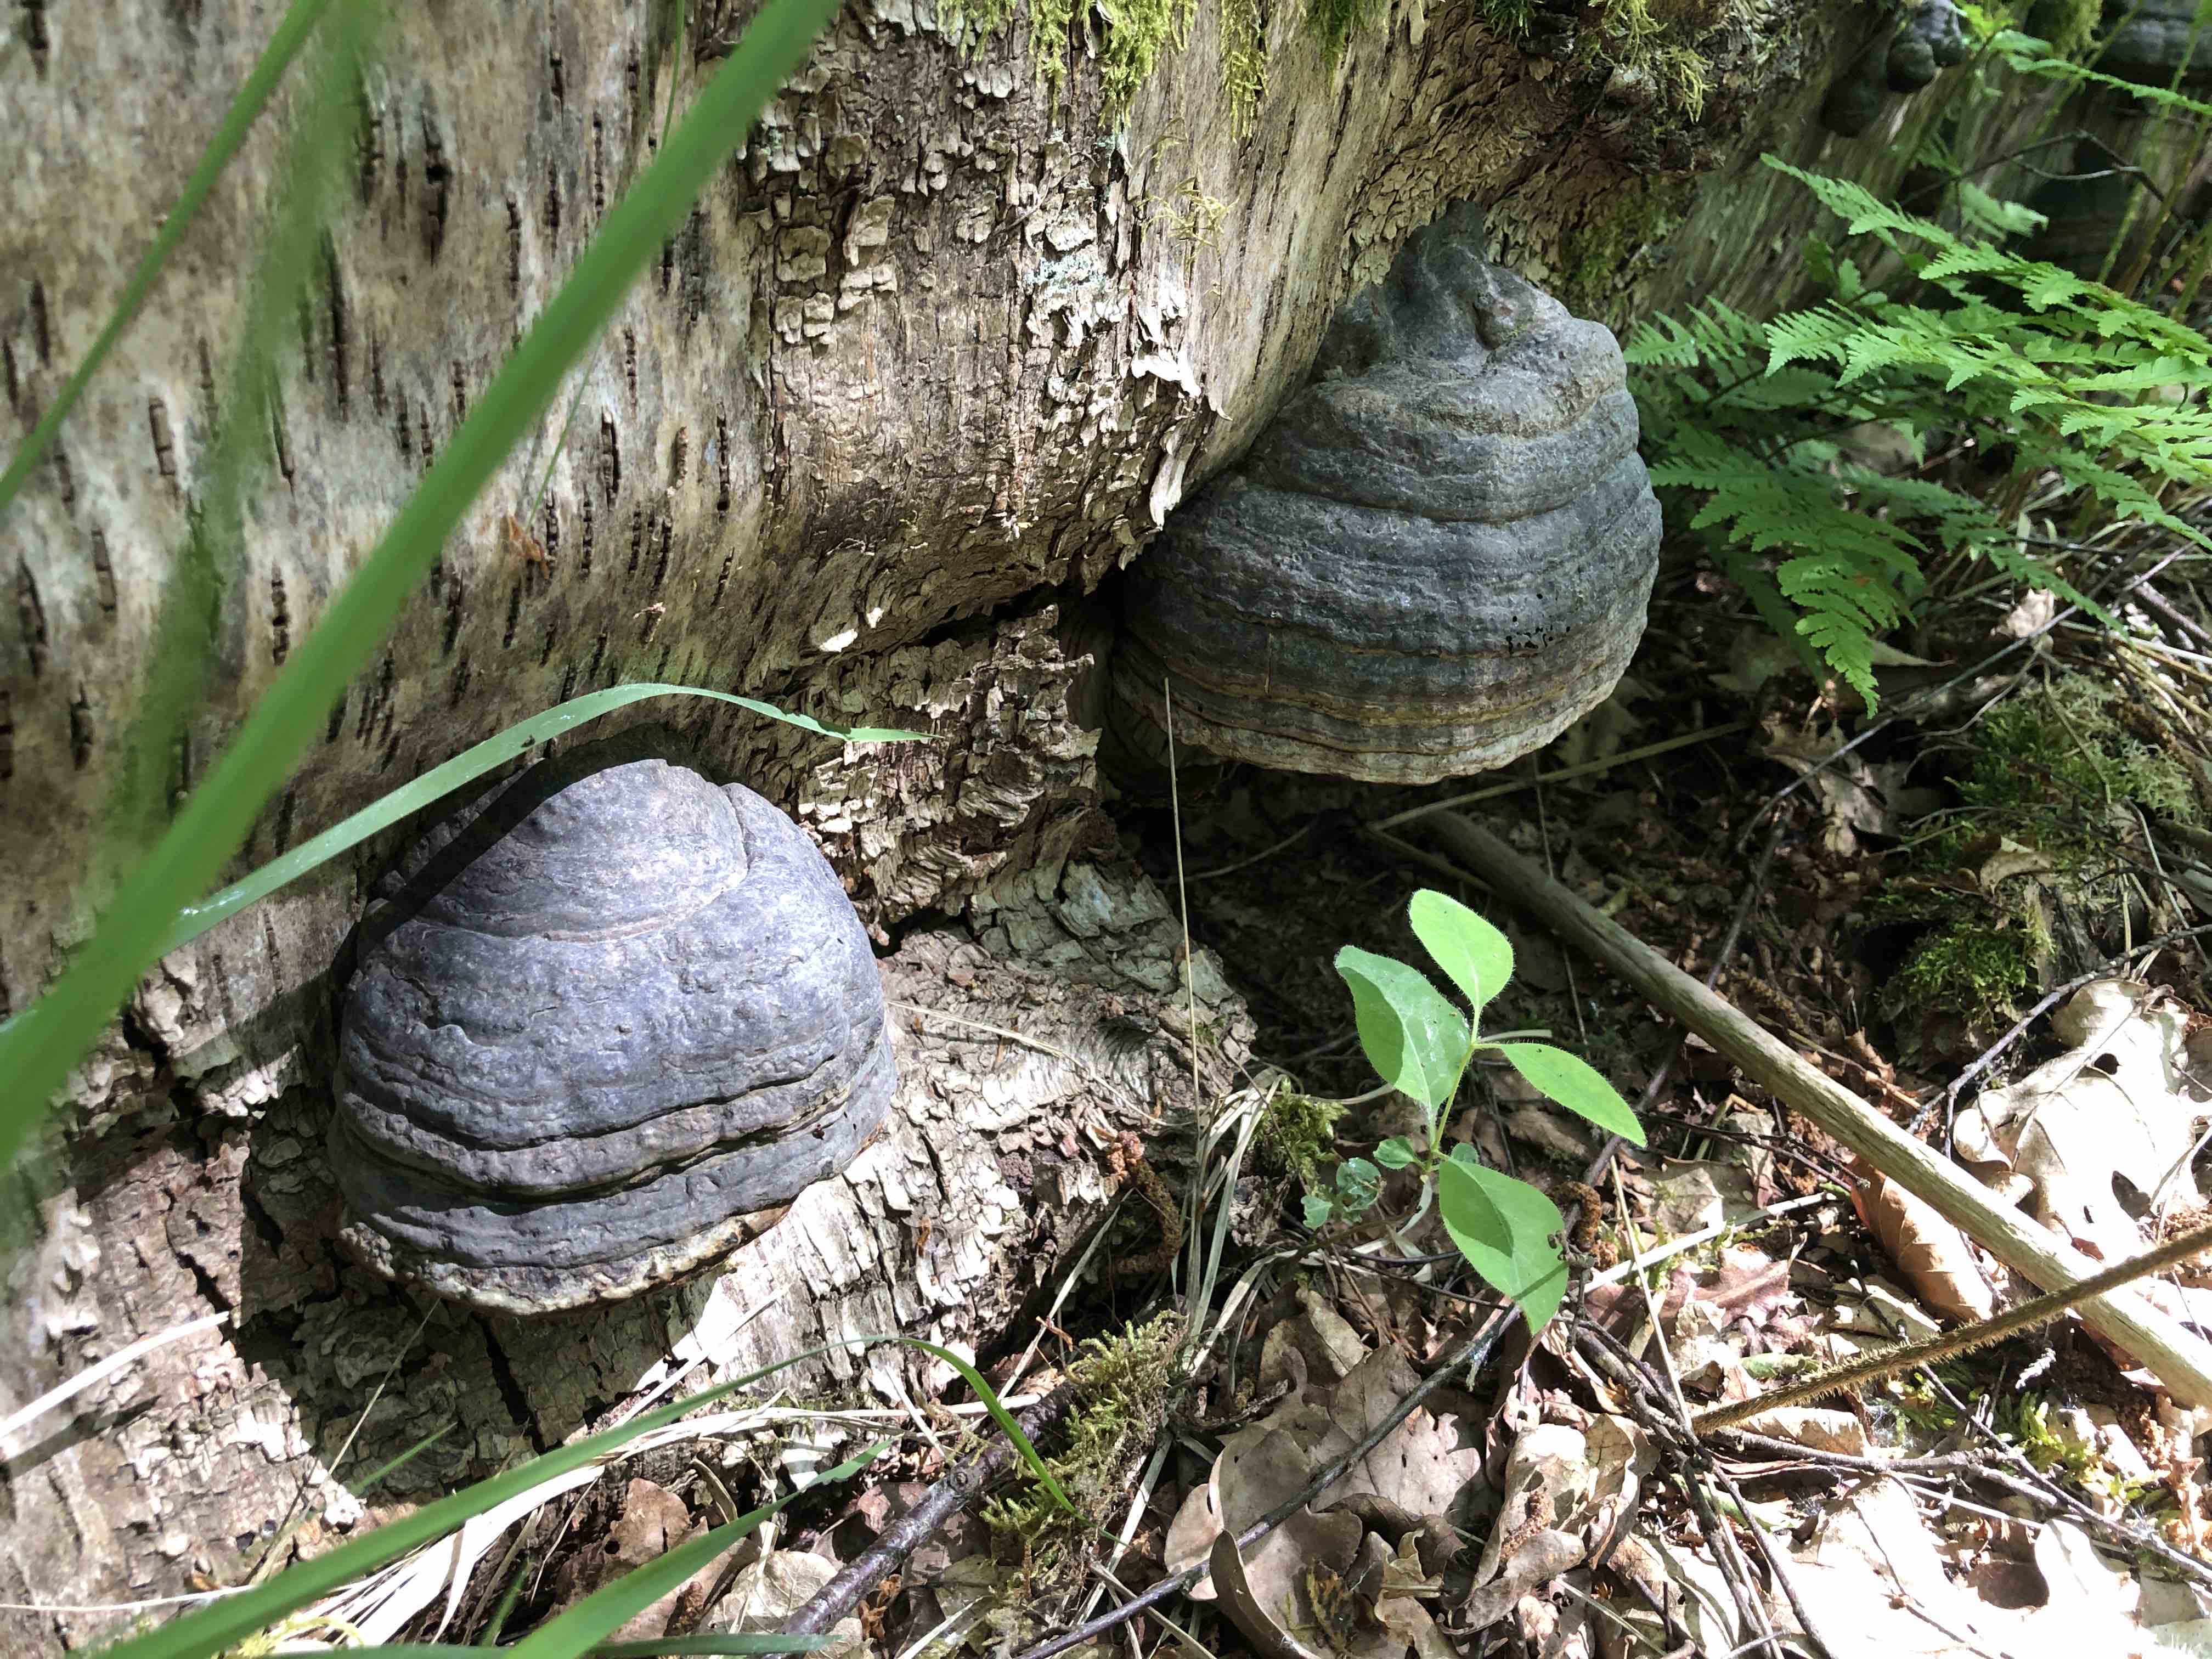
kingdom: Fungi
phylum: Basidiomycota
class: Agaricomycetes
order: Polyporales
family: Polyporaceae
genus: Fomes
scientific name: Fomes fomentarius
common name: tøndersvamp
